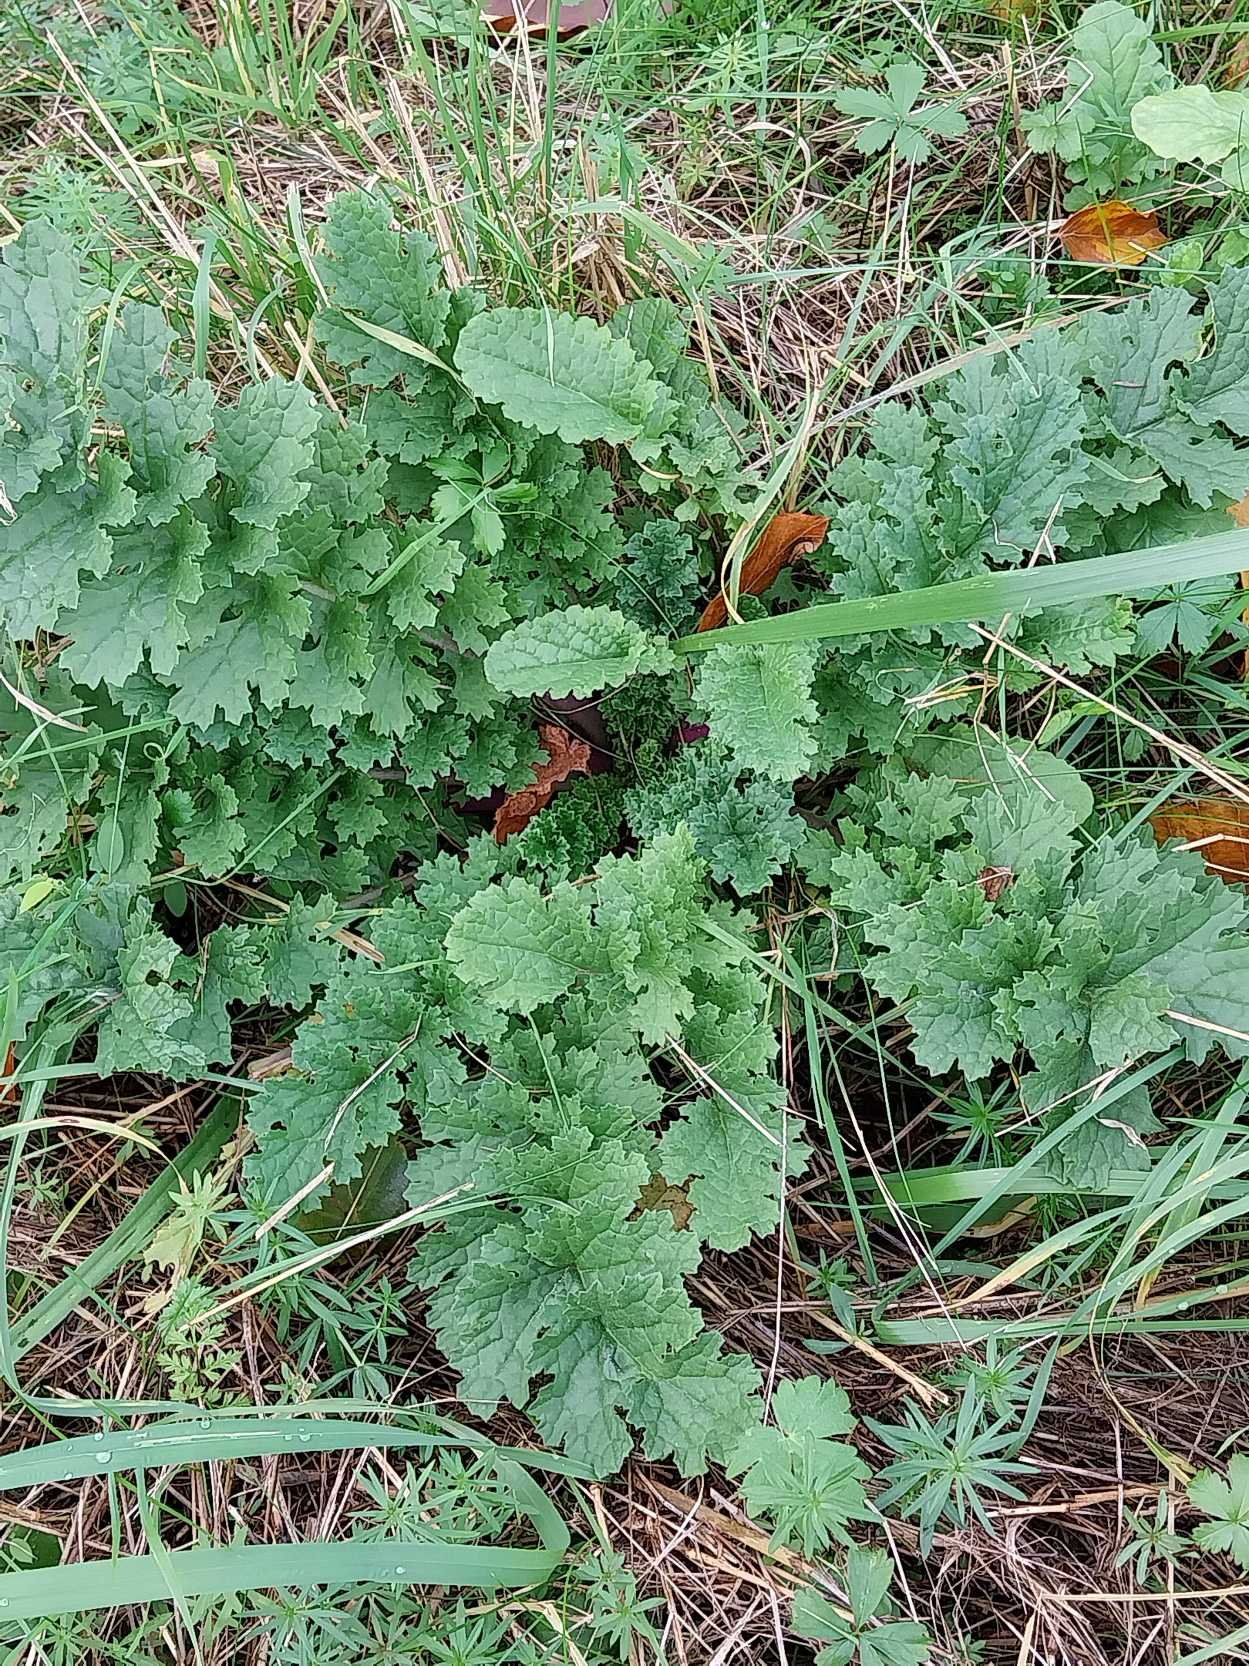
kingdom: Plantae
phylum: Tracheophyta
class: Magnoliopsida
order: Asterales
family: Asteraceae
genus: Jacobaea
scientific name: Jacobaea vulgaris
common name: Eng-brandbæger
